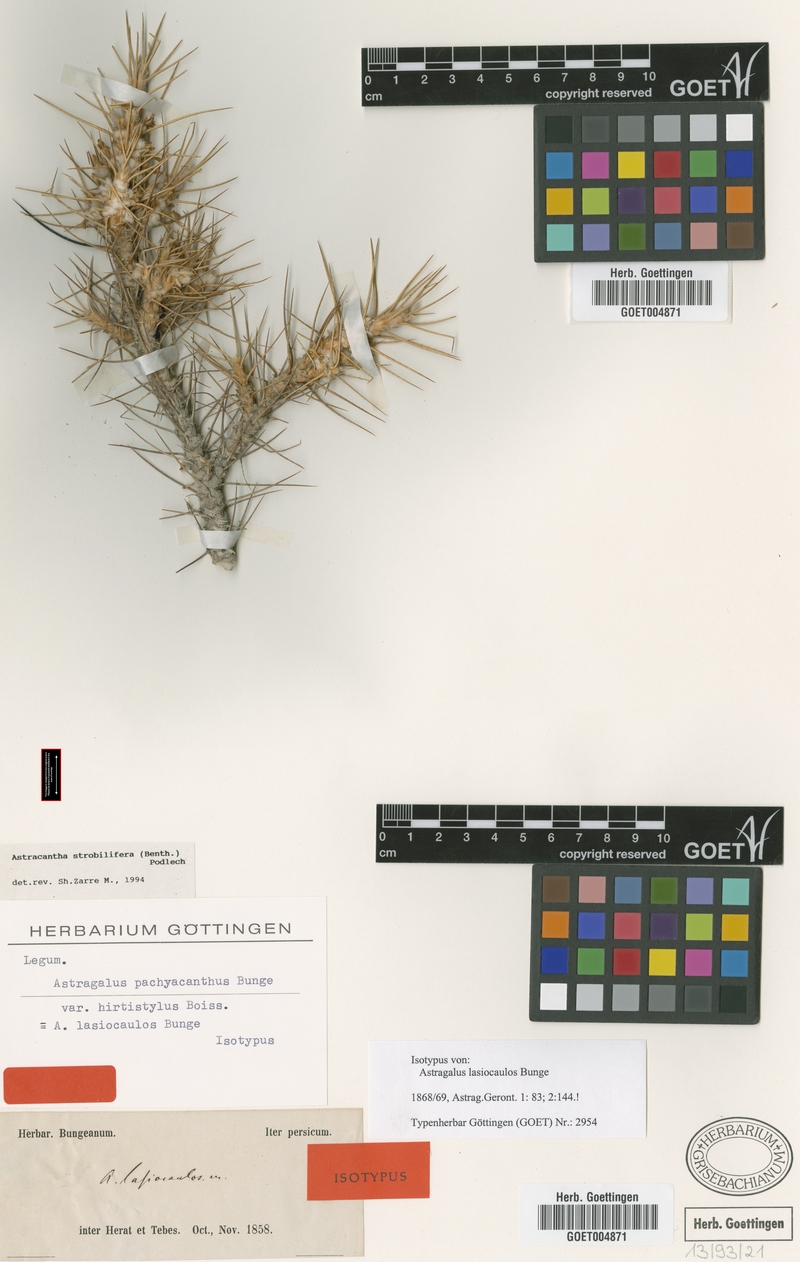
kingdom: Plantae
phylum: Tracheophyta
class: Magnoliopsida
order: Fabales
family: Fabaceae
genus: Astragalus
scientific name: Astragalus strobiliferus
